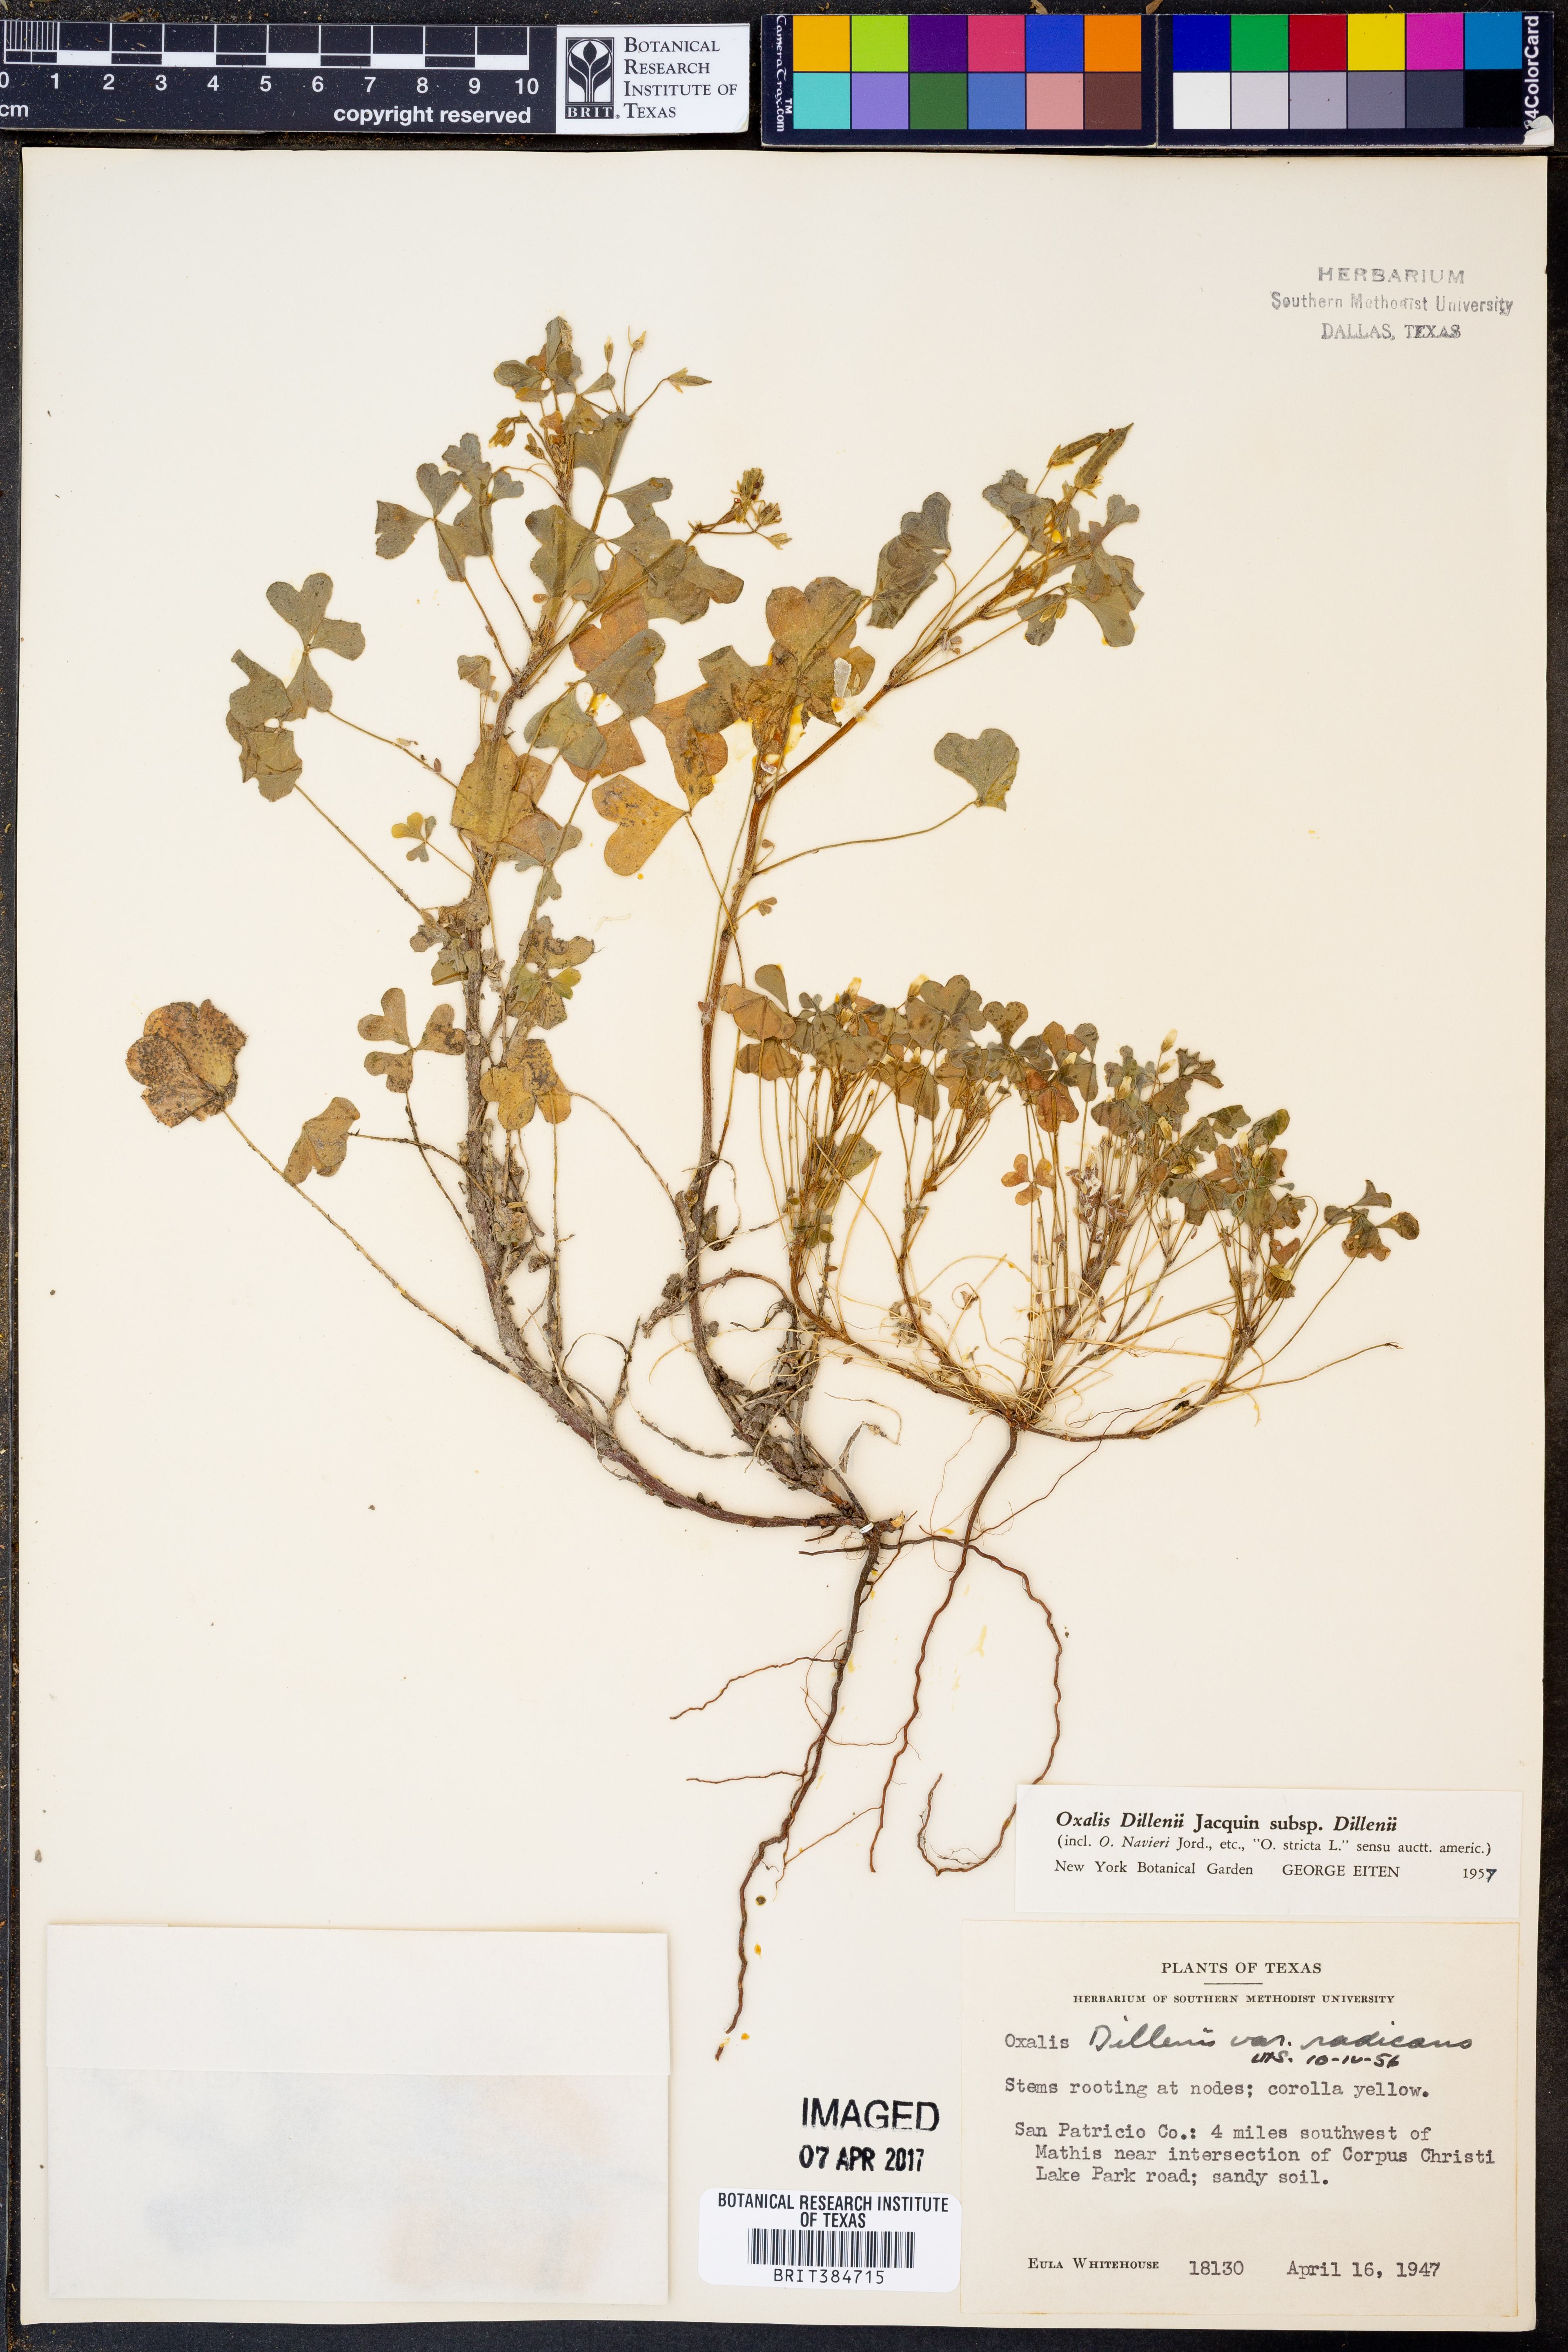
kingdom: Plantae
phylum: Tracheophyta
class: Magnoliopsida
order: Oxalidales
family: Oxalidaceae
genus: Oxalis
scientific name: Oxalis dillenii
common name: Sussex yellow-sorrel
